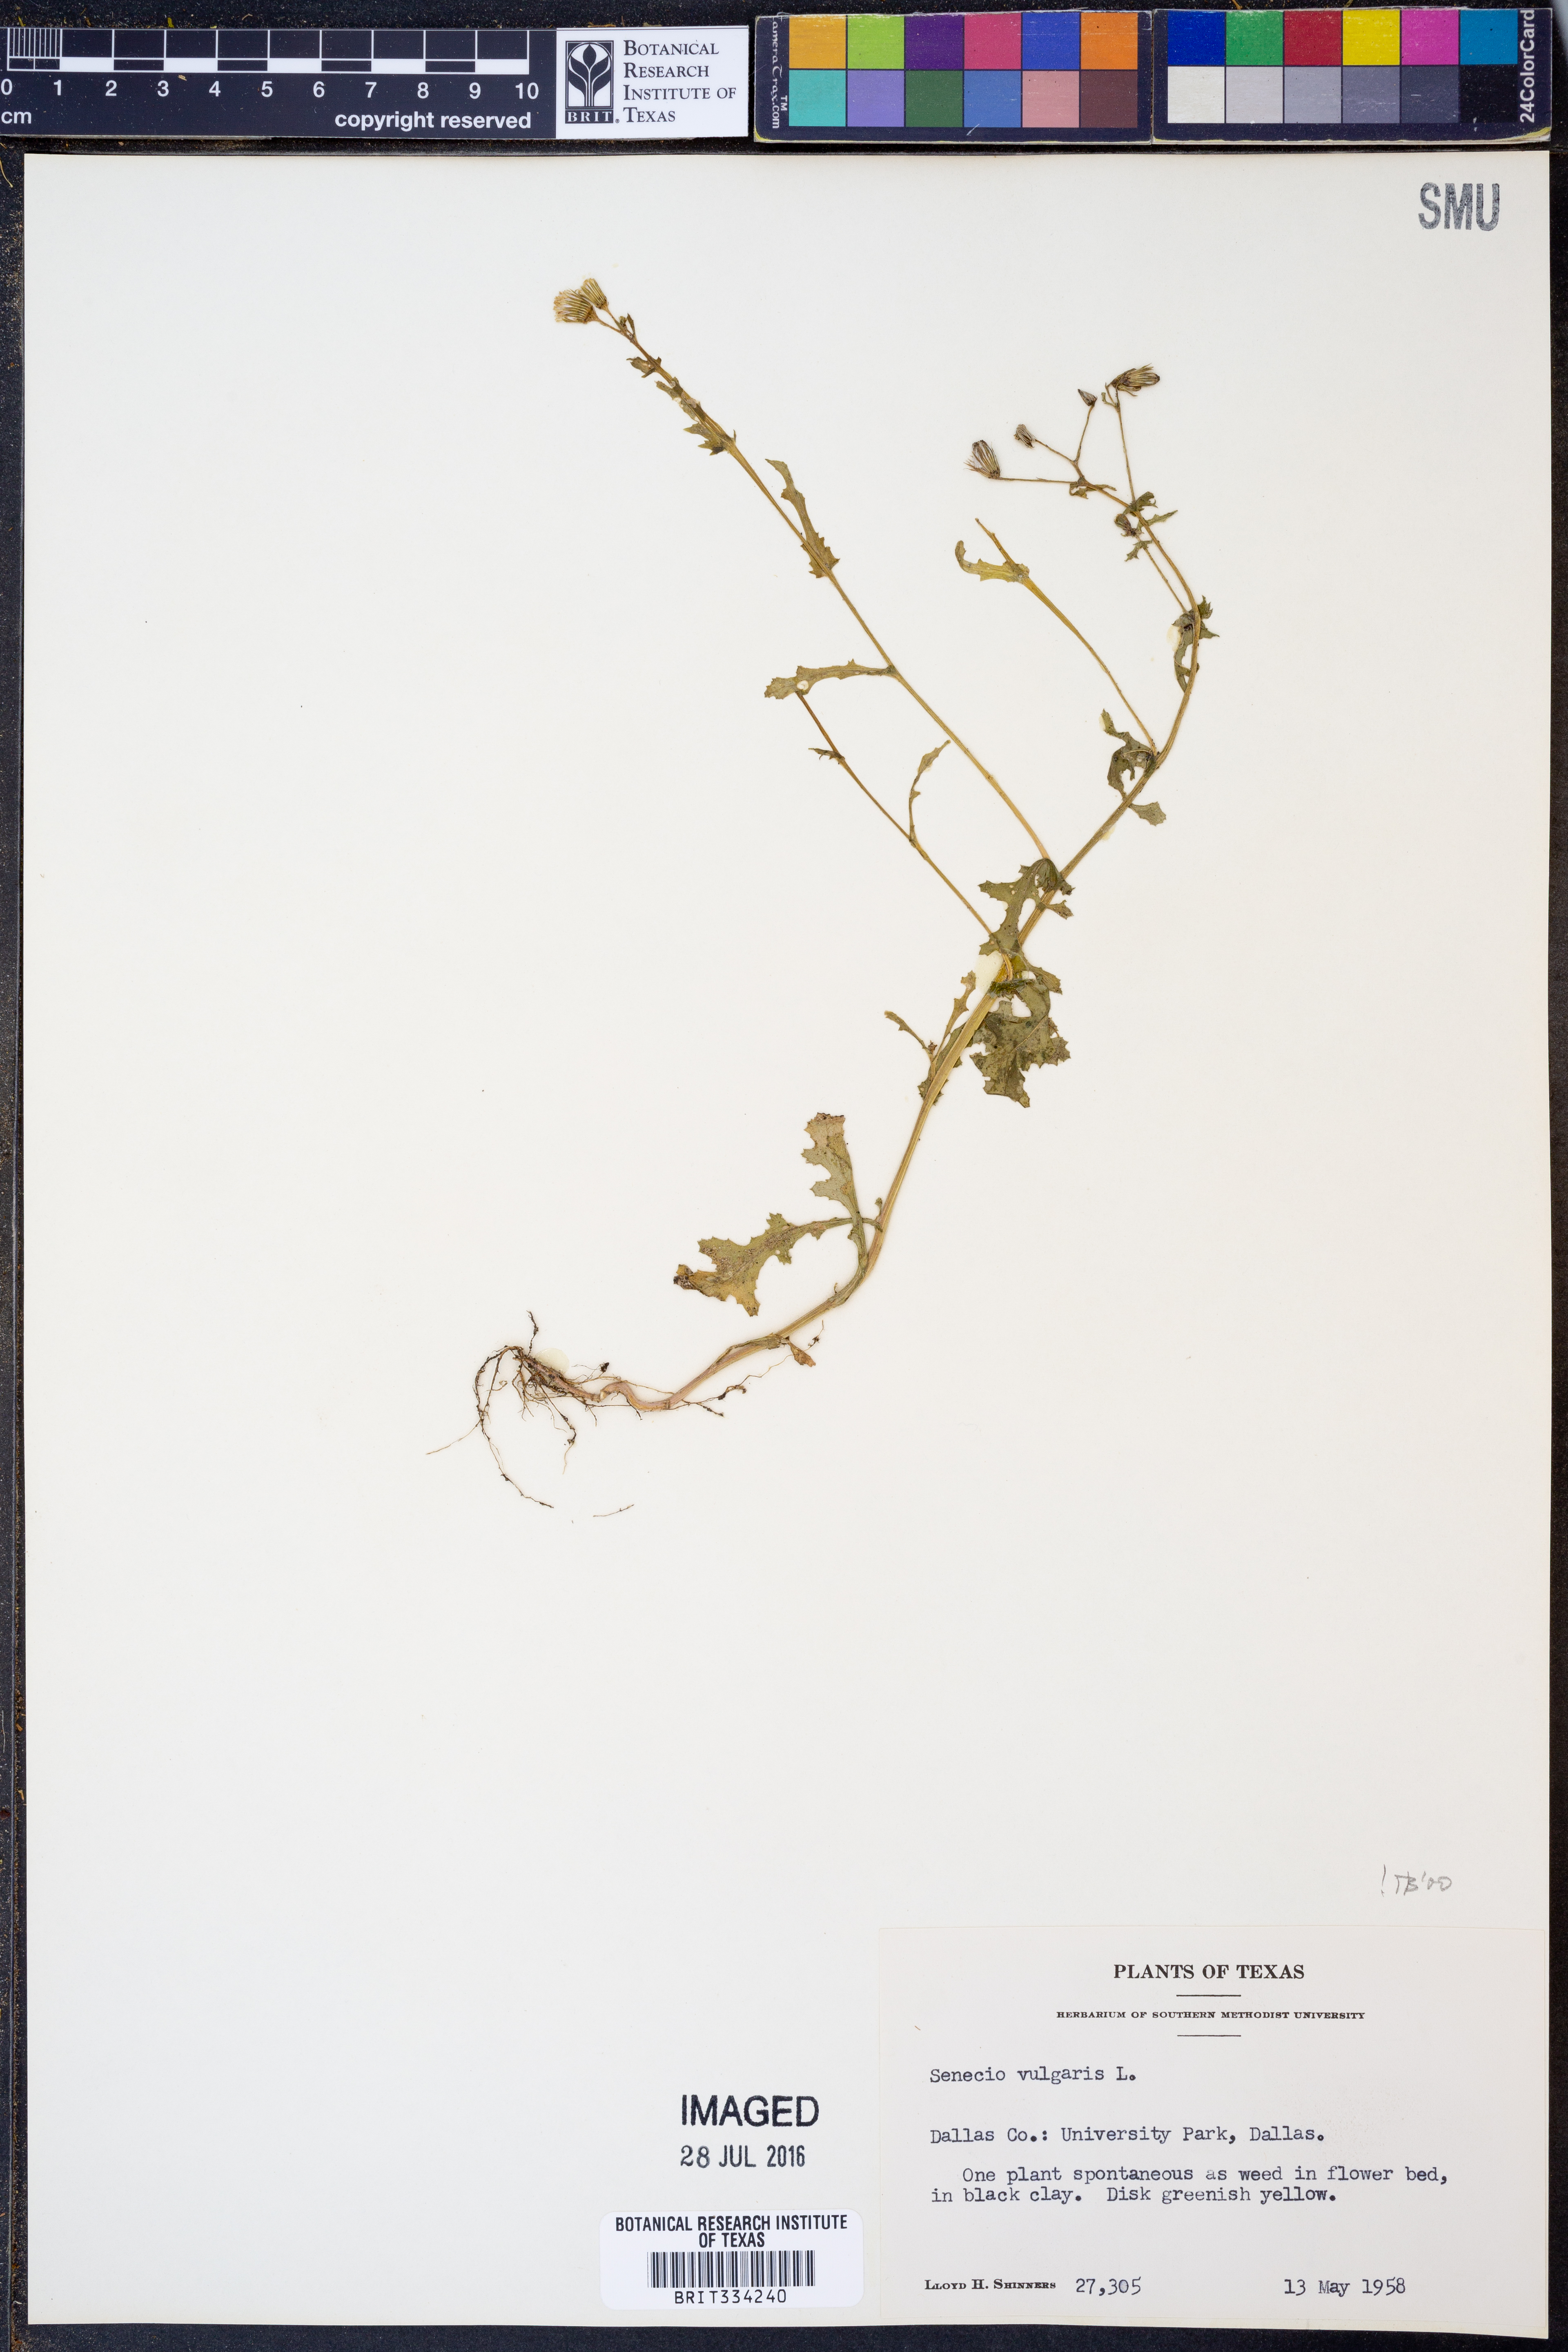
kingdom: Plantae
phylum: Tracheophyta
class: Magnoliopsida
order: Asterales
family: Asteraceae
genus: Senecio
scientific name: Senecio vulgaris
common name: Old-man-in-the-spring
